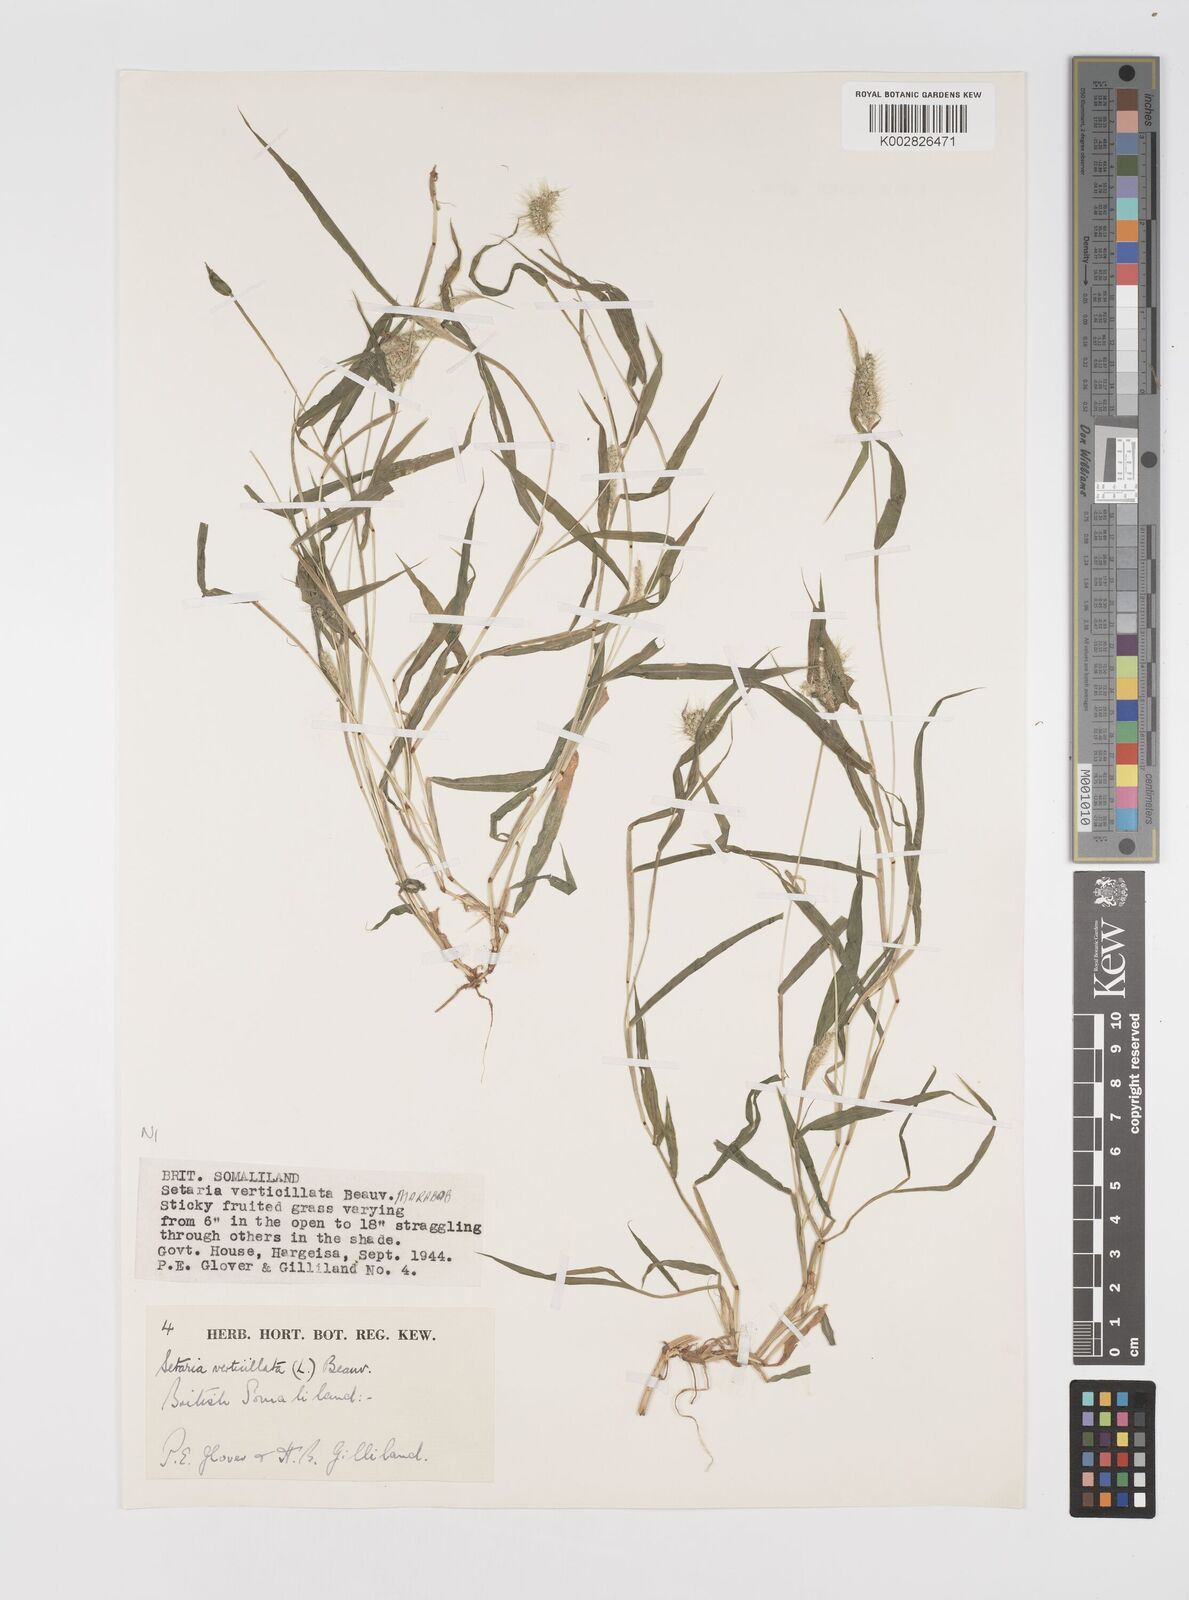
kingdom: Plantae
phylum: Tracheophyta
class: Liliopsida
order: Poales
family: Poaceae
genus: Setaria
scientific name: Setaria verticillata
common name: Hooked bristlegrass
